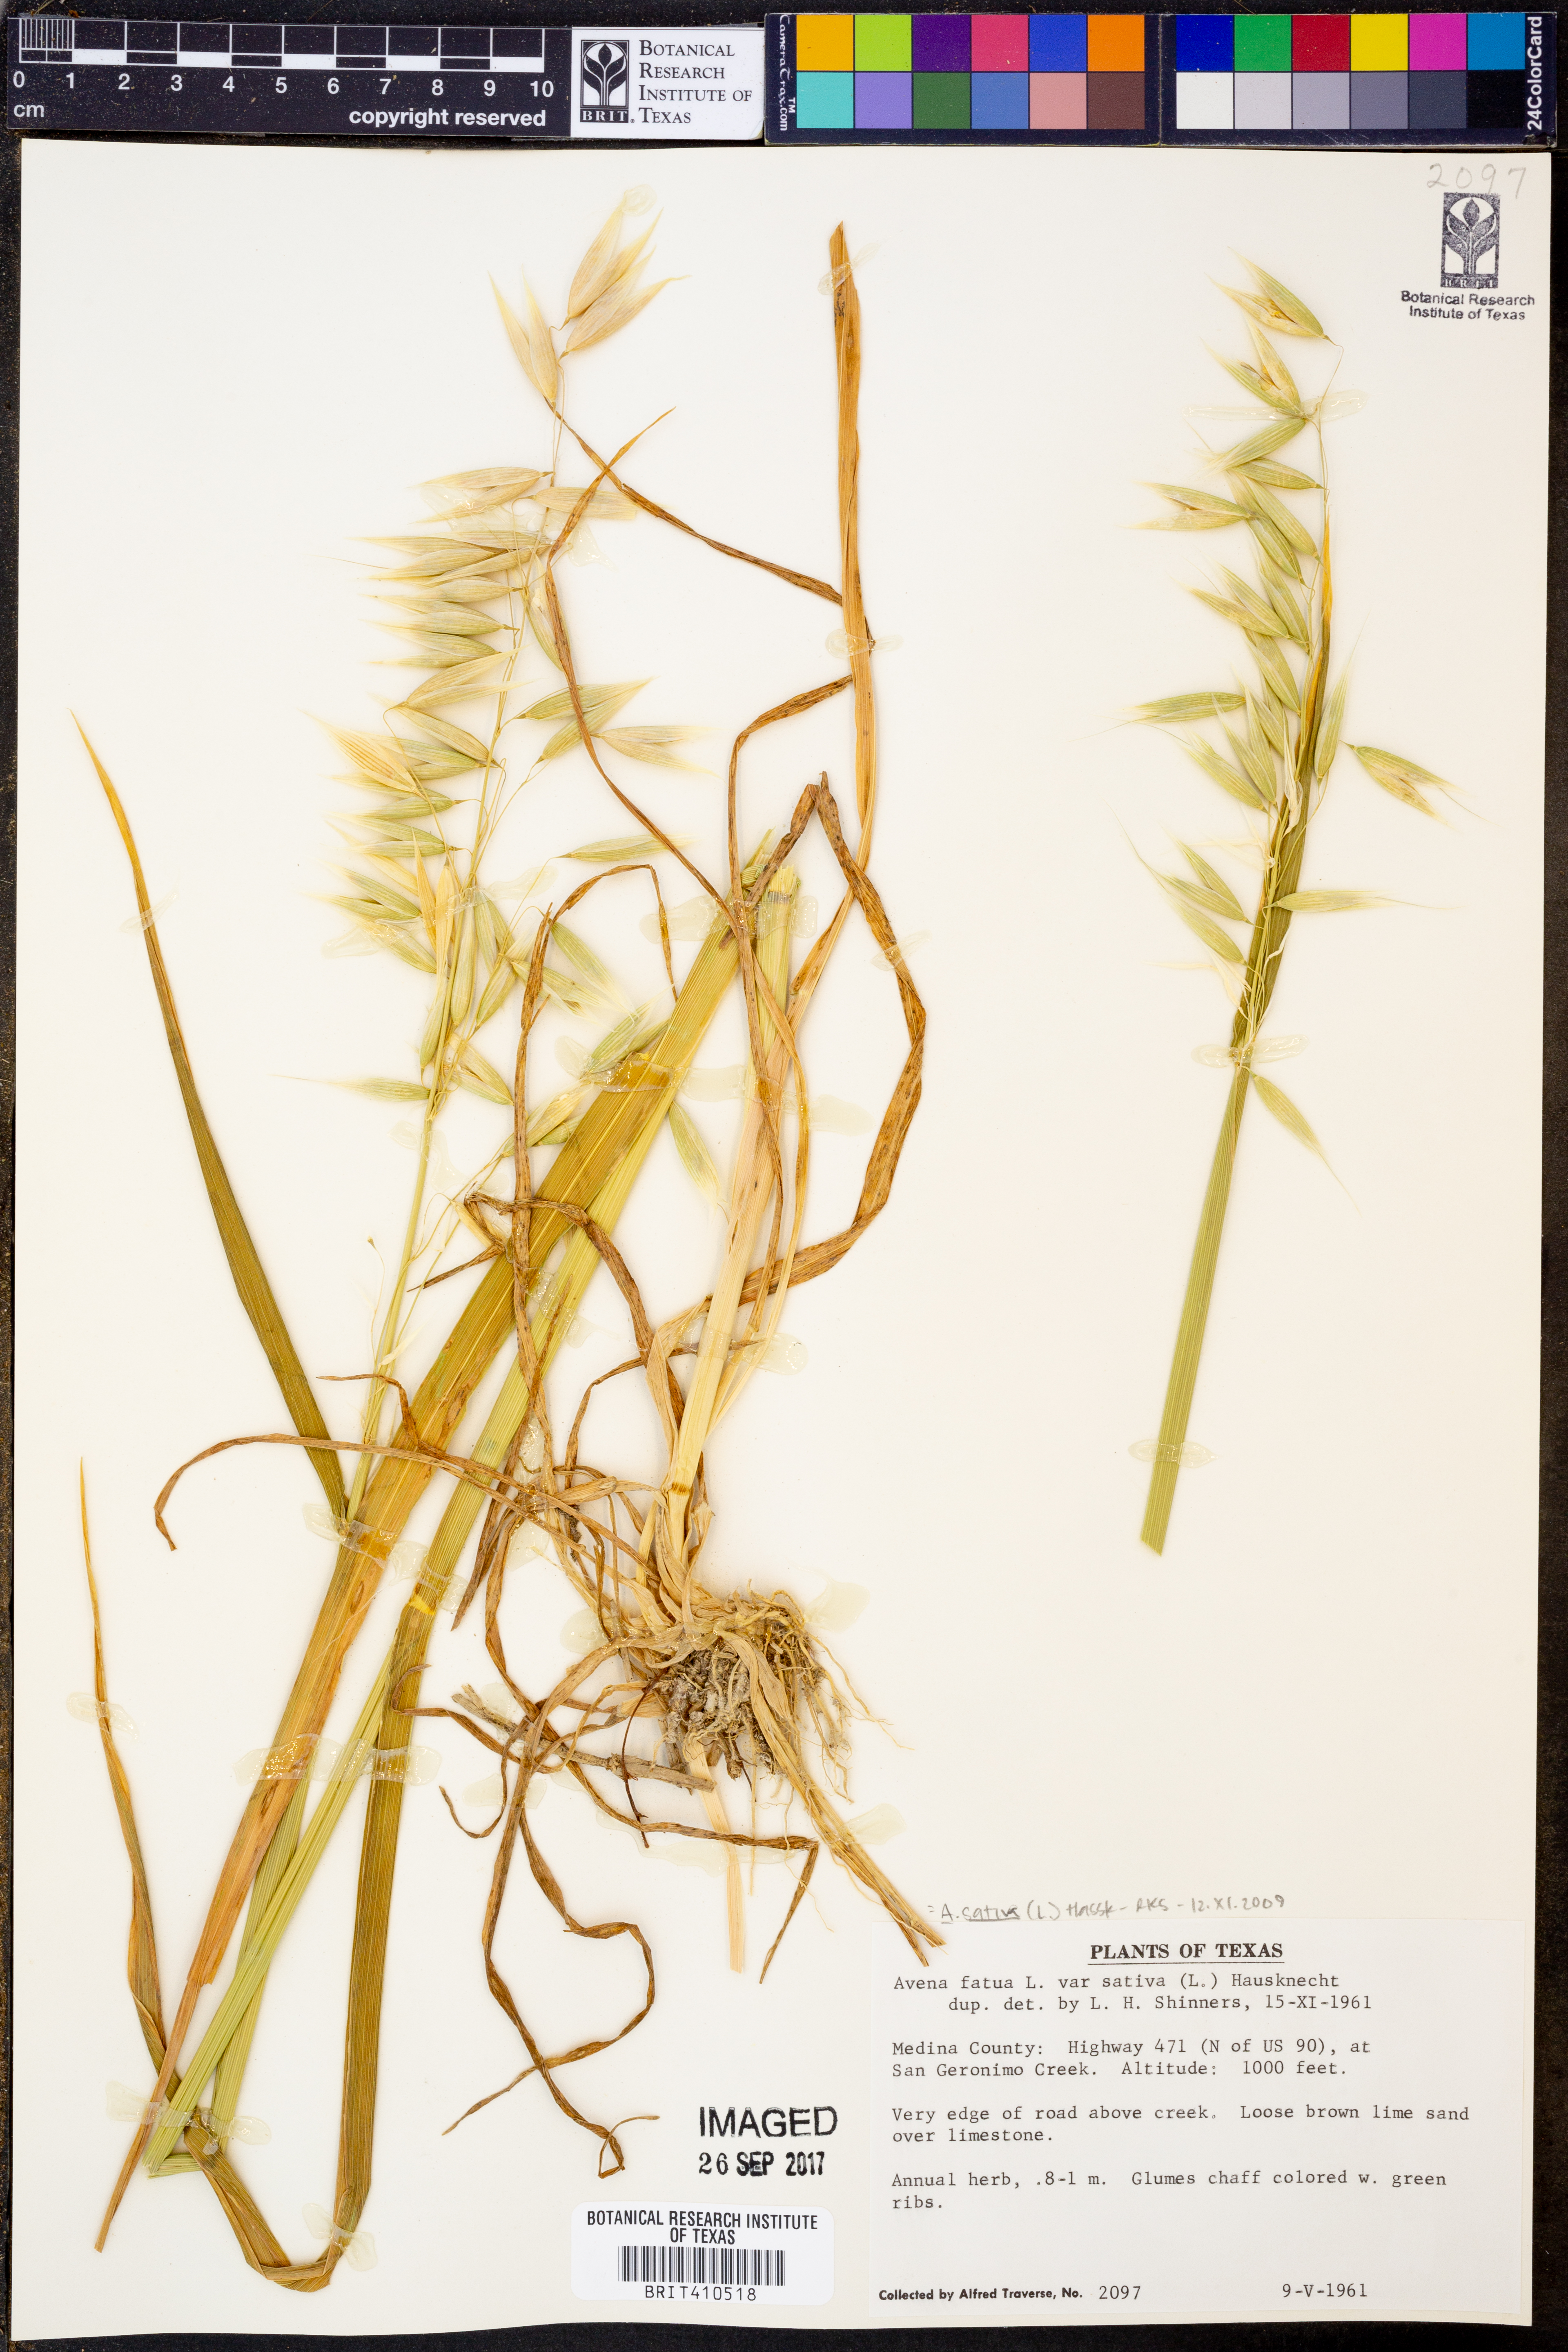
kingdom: Plantae
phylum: Tracheophyta
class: Liliopsida
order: Poales
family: Poaceae
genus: Avena
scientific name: Avena sativa
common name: Oat
